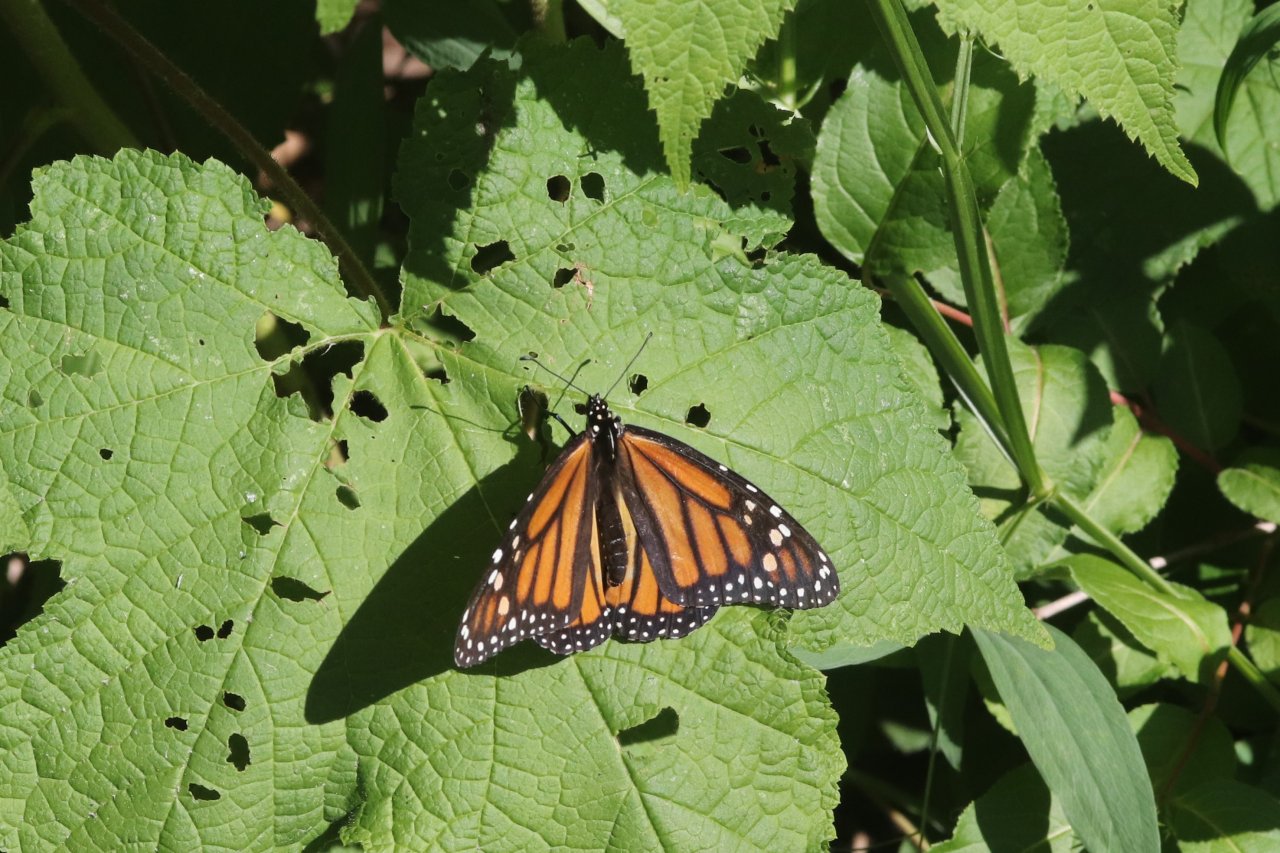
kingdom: Animalia
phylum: Arthropoda
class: Insecta
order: Lepidoptera
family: Nymphalidae
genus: Danaus
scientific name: Danaus plexippus
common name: Monarch
